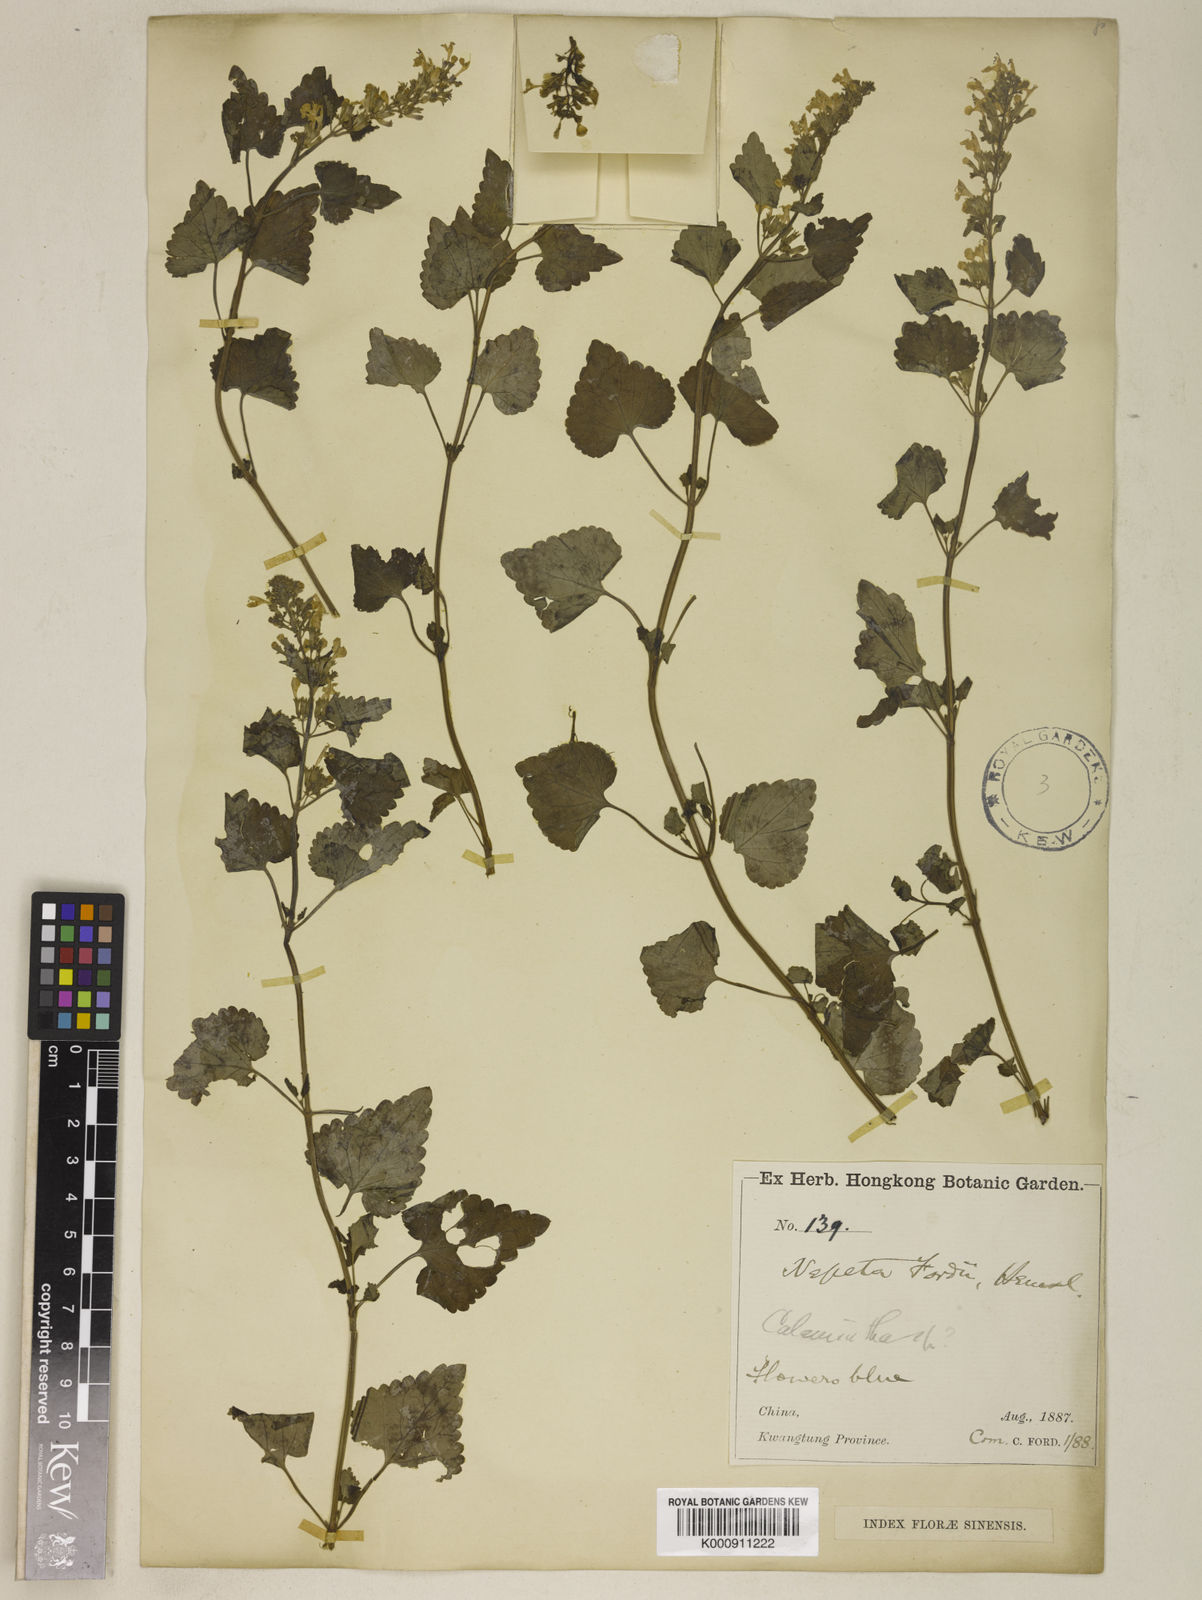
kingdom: Plantae
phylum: Tracheophyta
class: Magnoliopsida
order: Lamiales
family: Lamiaceae
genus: Nepeta
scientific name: Nepeta fordii
